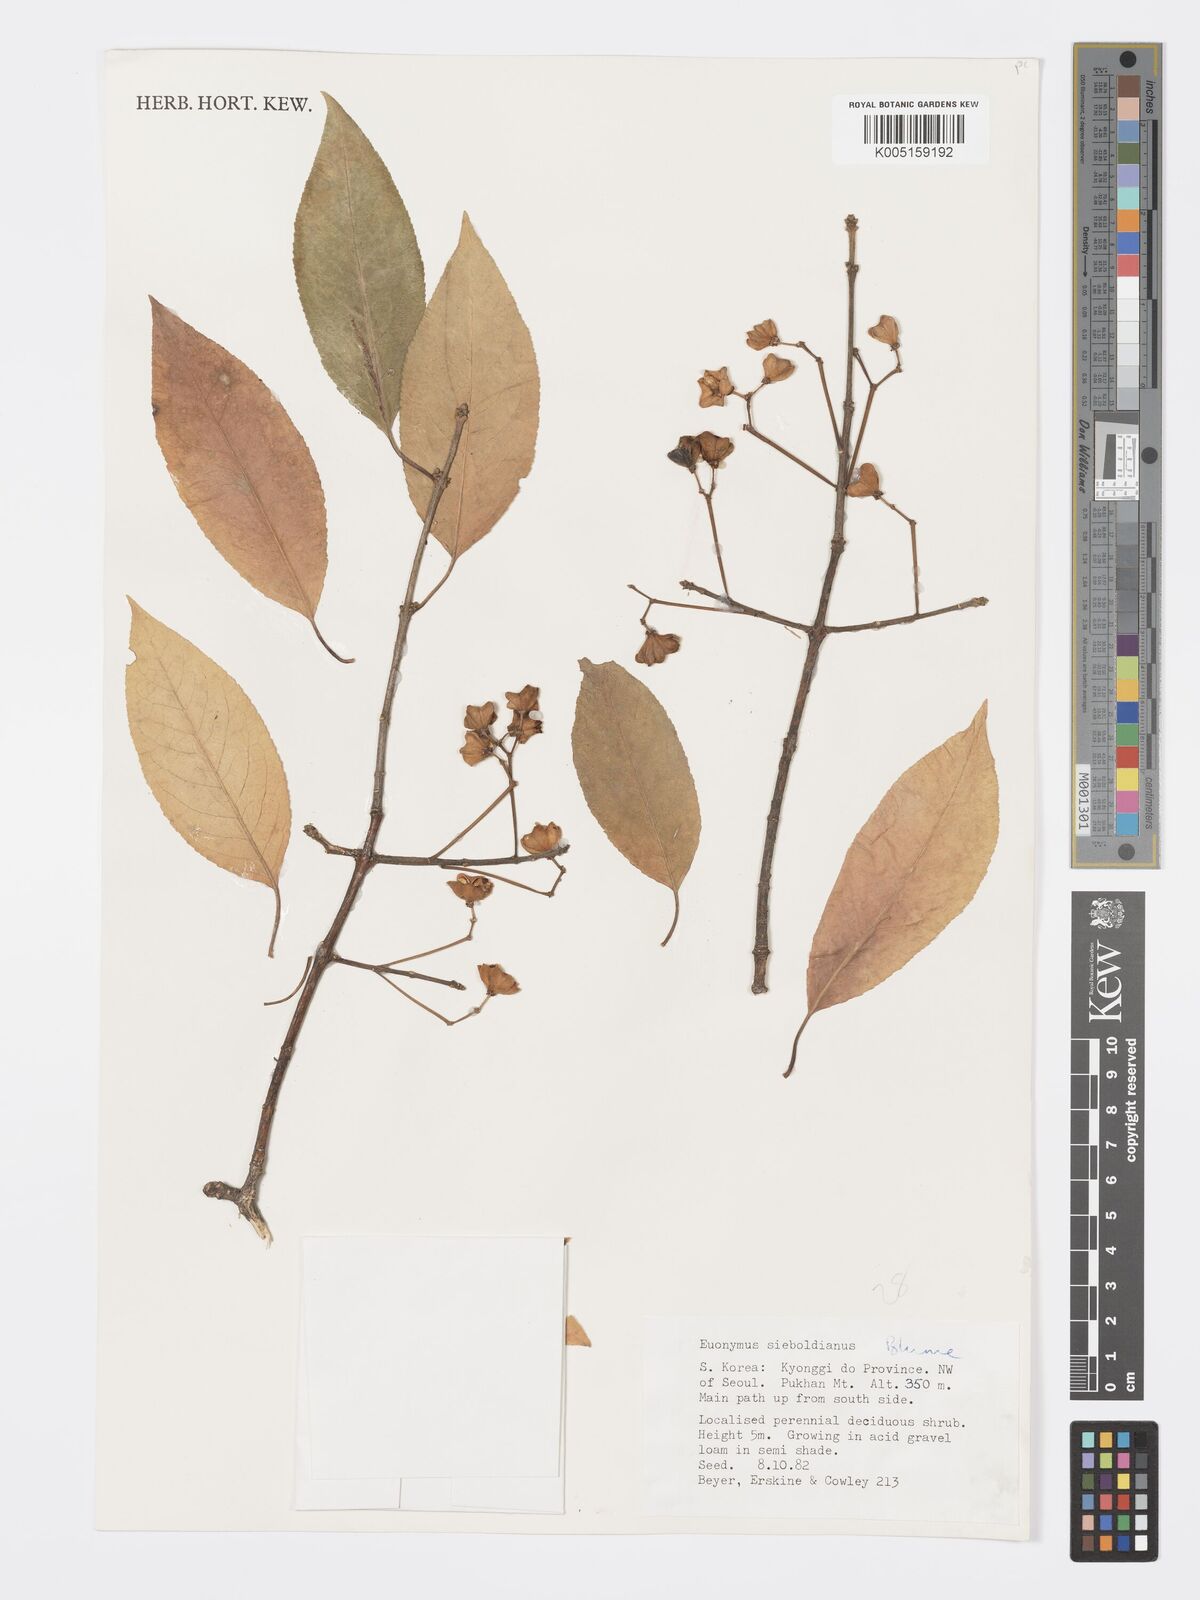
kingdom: Plantae
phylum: Tracheophyta
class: Magnoliopsida
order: Celastrales
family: Celastraceae
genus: Euonymus
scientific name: Euonymus hamiltonianus
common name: Hamilton's spindletree
